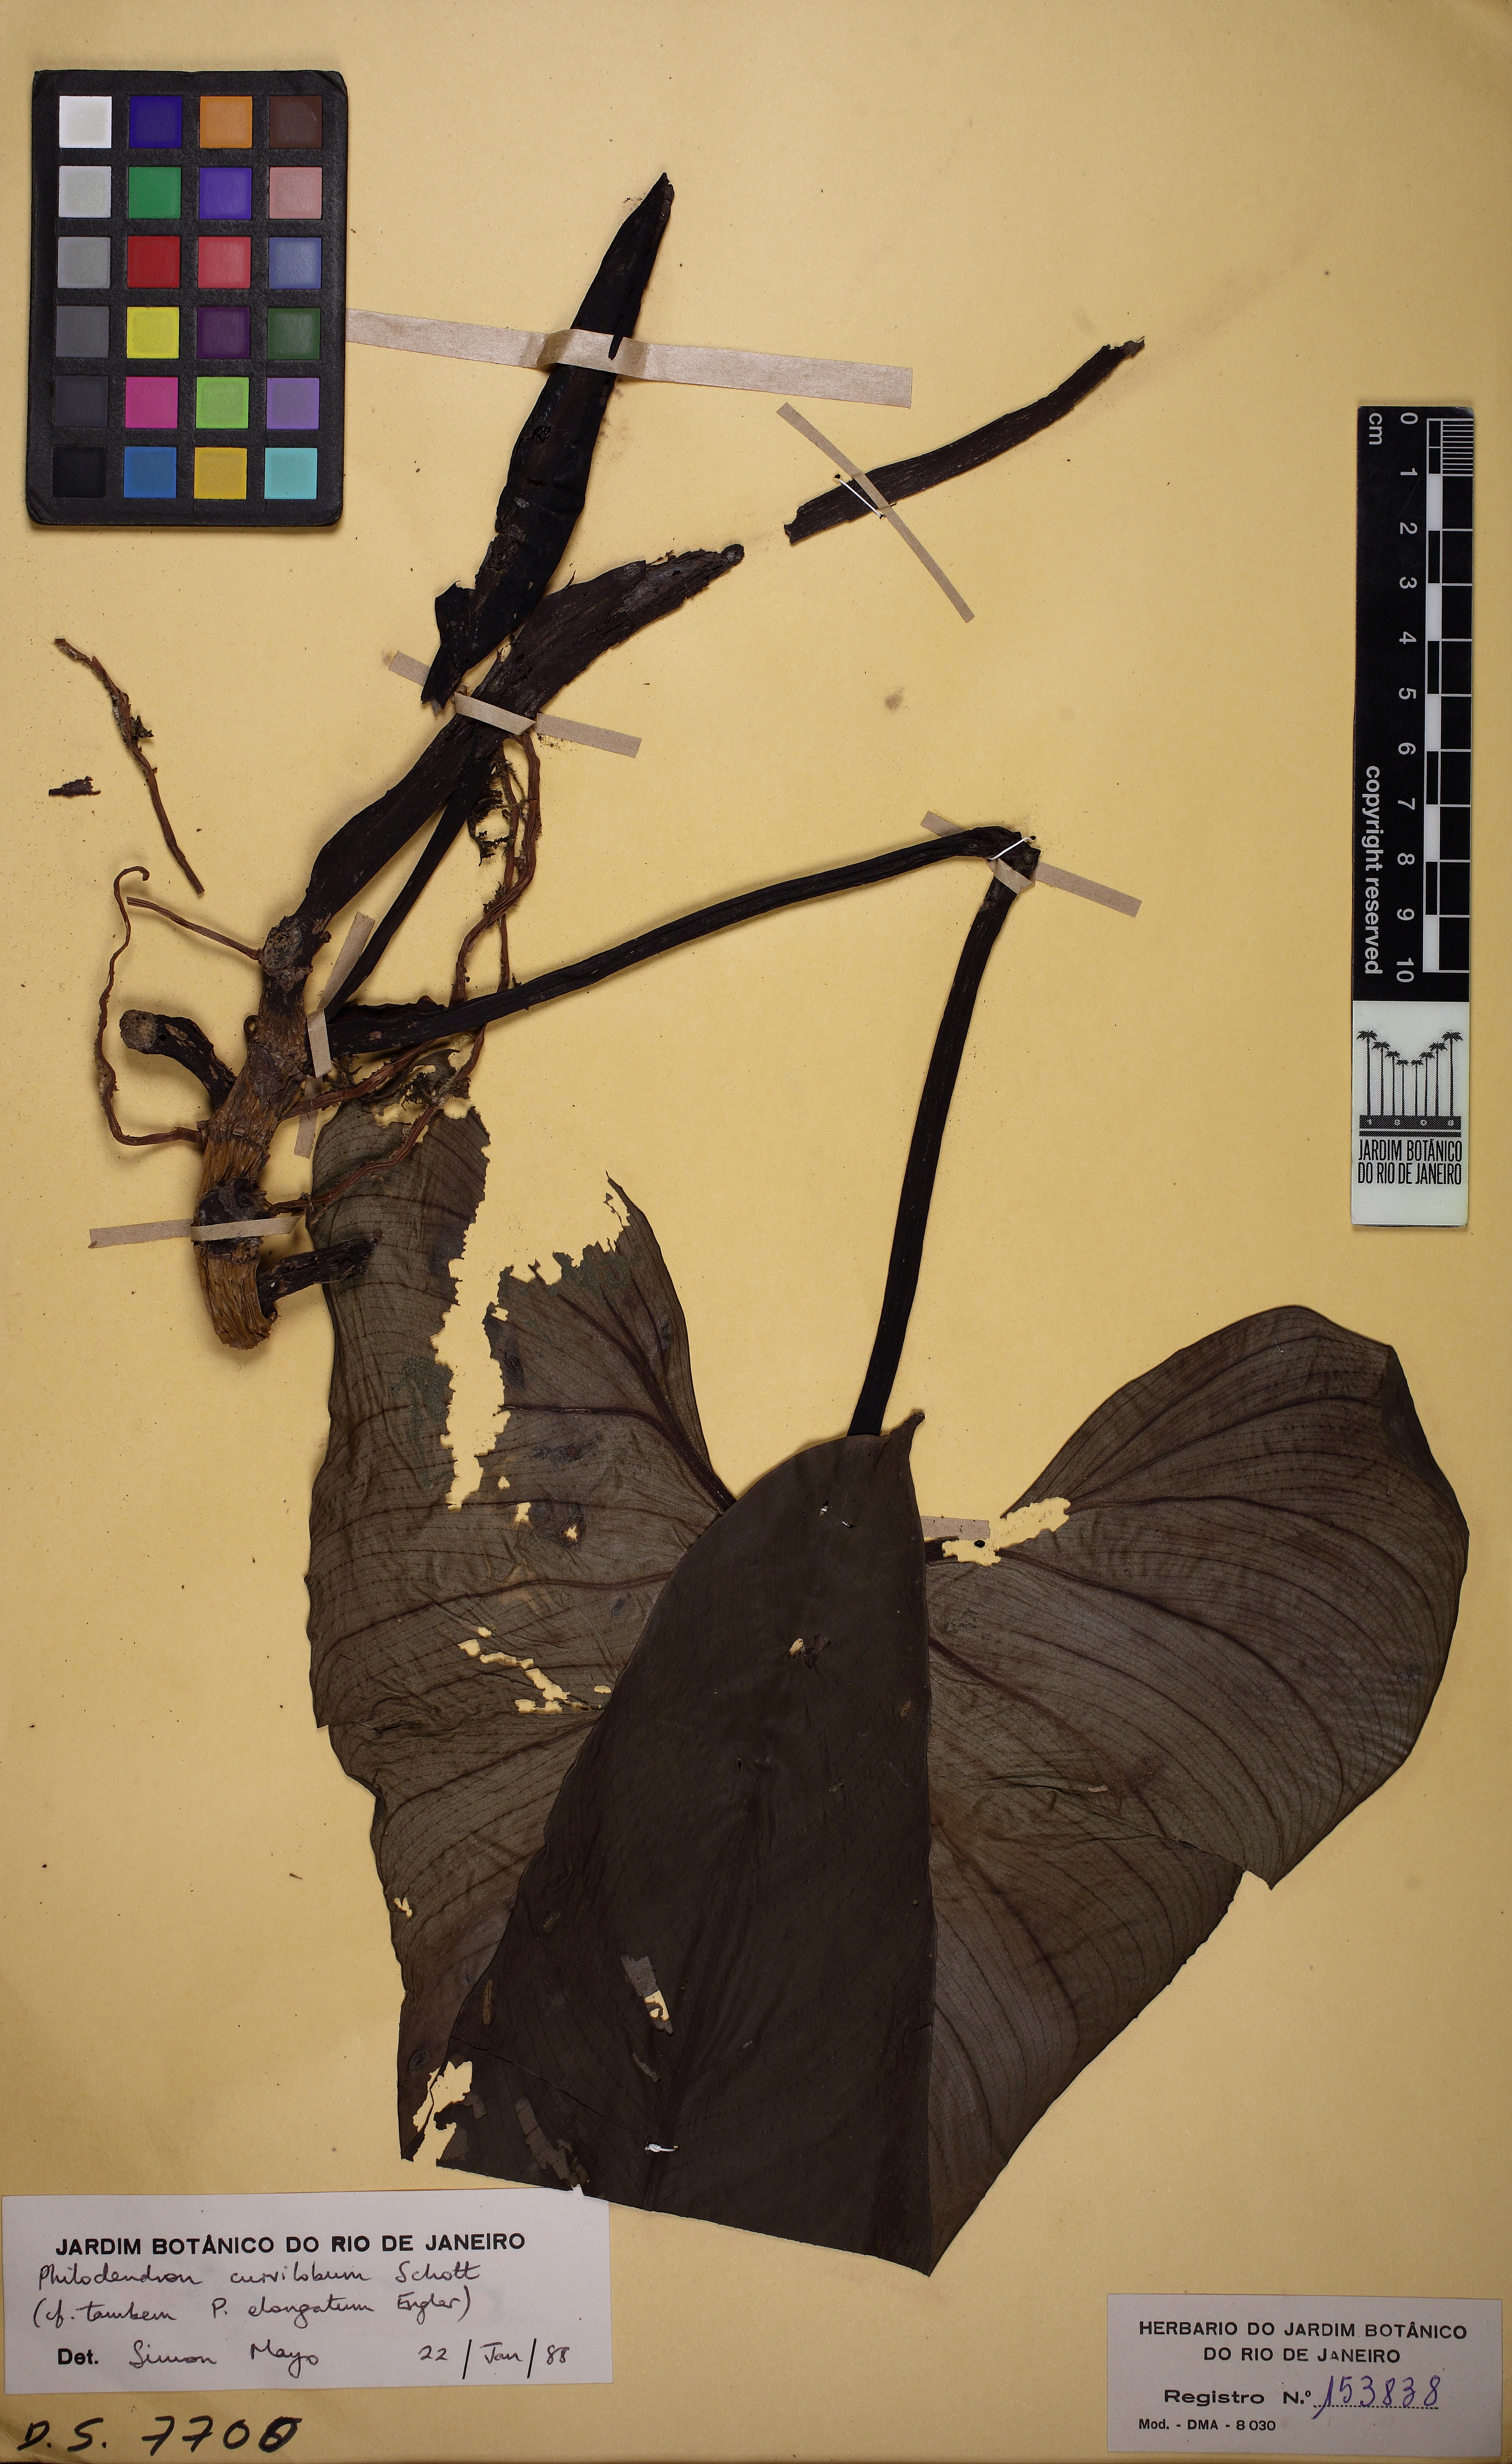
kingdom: Plantae
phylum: Tracheophyta
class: Liliopsida
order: Alismatales
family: Araceae
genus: Philodendron
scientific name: Philodendron curvilobum
